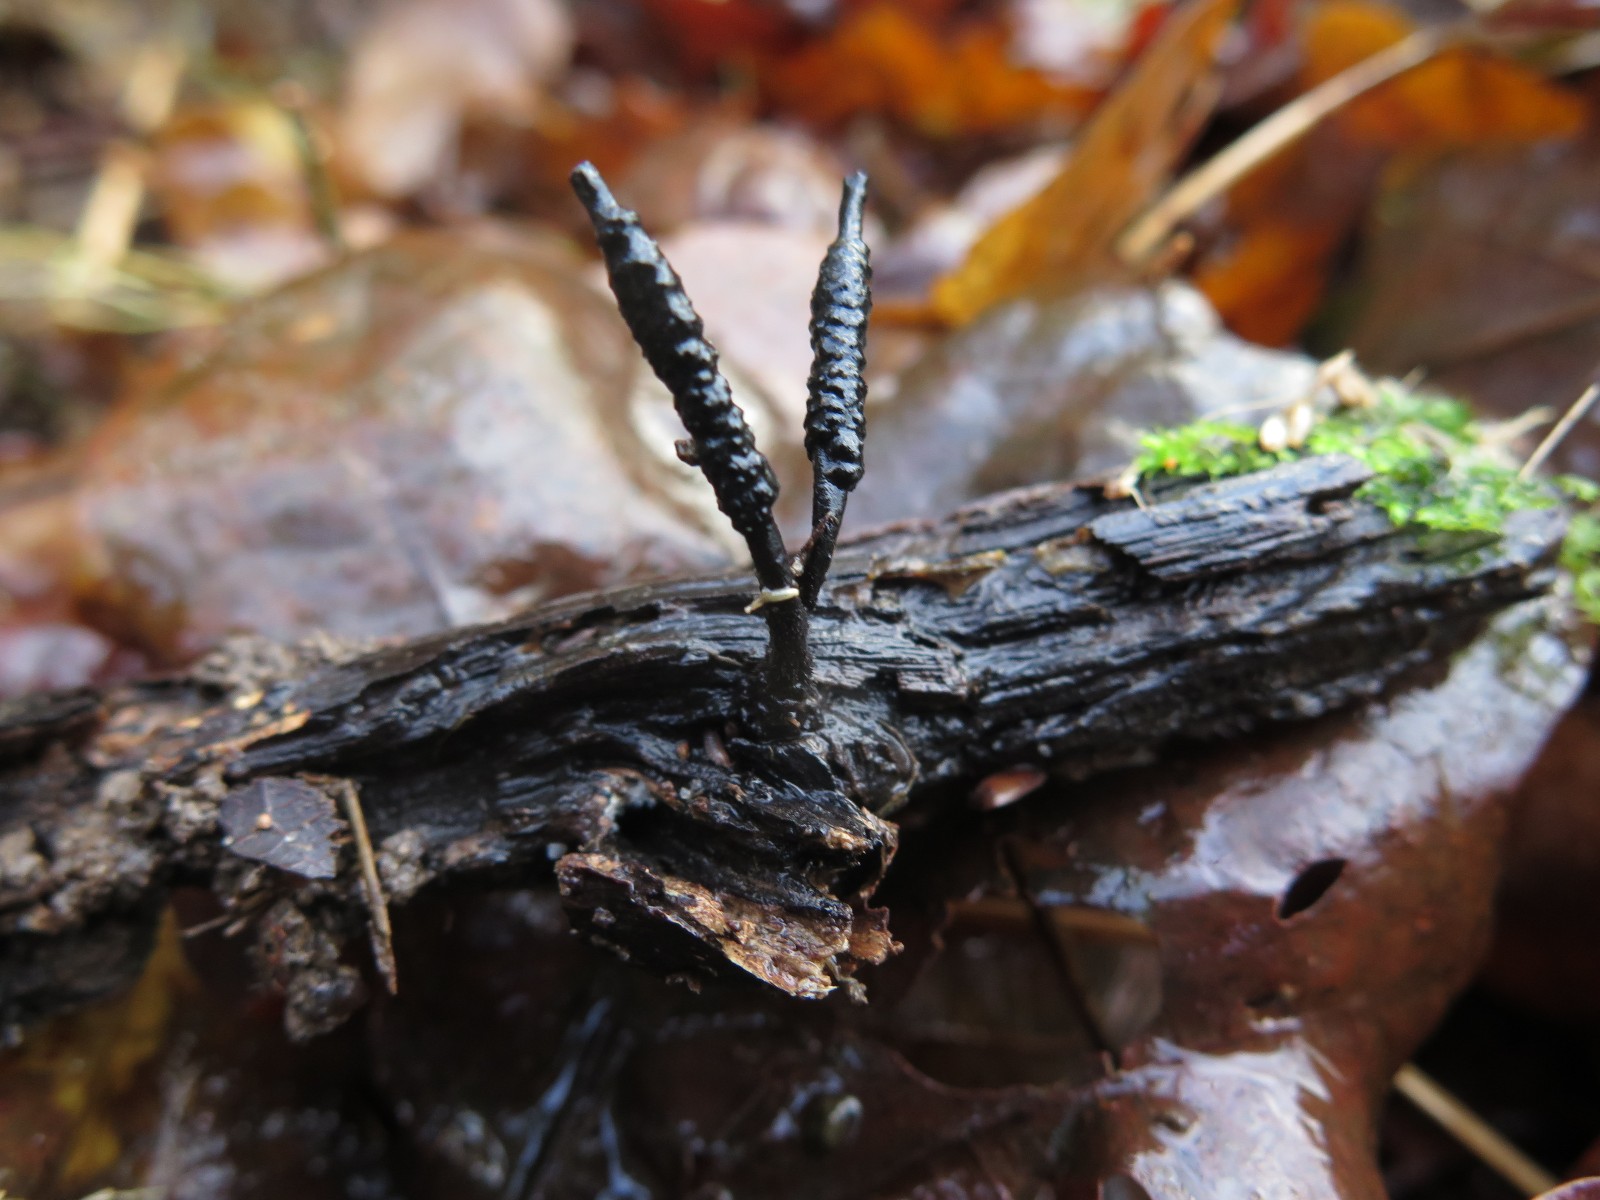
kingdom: Fungi
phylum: Ascomycota
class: Sordariomycetes
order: Xylariales
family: Xylariaceae
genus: Xylaria
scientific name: Xylaria hypoxylon
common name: grenet stødsvamp
